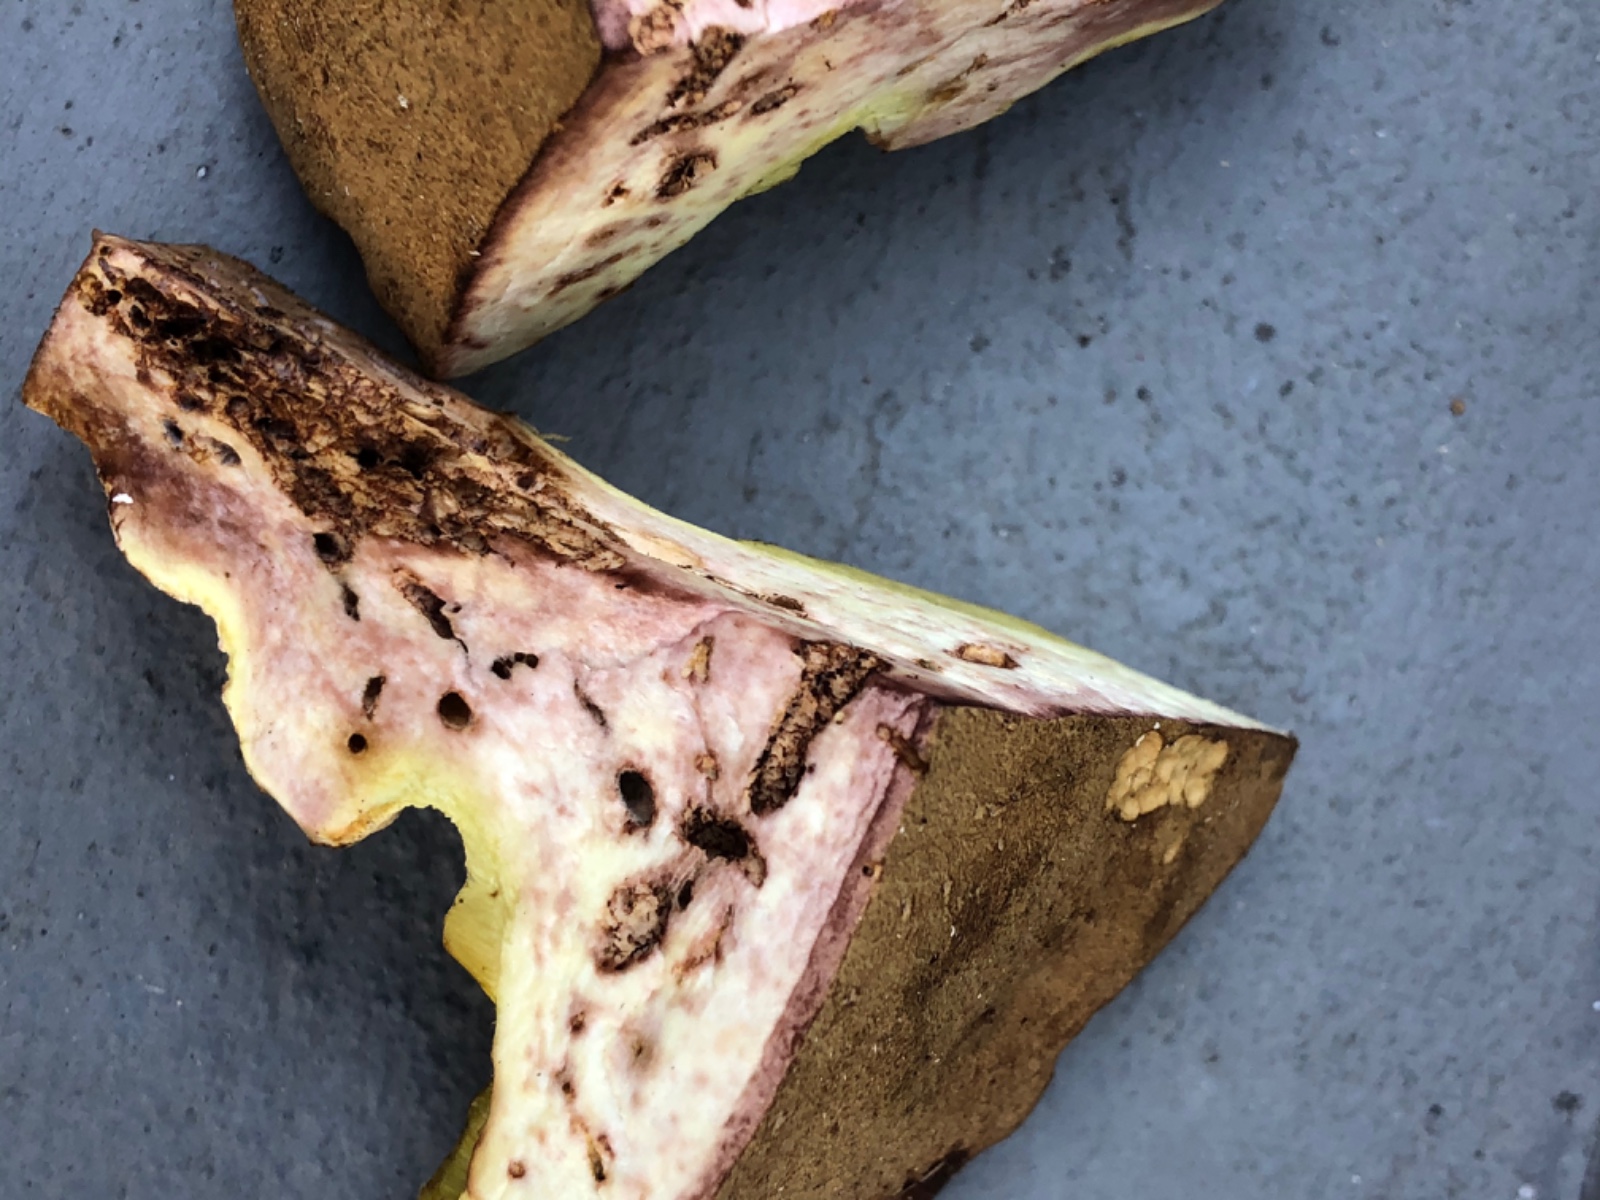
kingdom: Fungi
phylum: Basidiomycota
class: Agaricomycetes
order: Boletales
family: Boletaceae
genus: Butyriboletus
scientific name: Butyriboletus appendiculatus
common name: tenstokket rørhat
